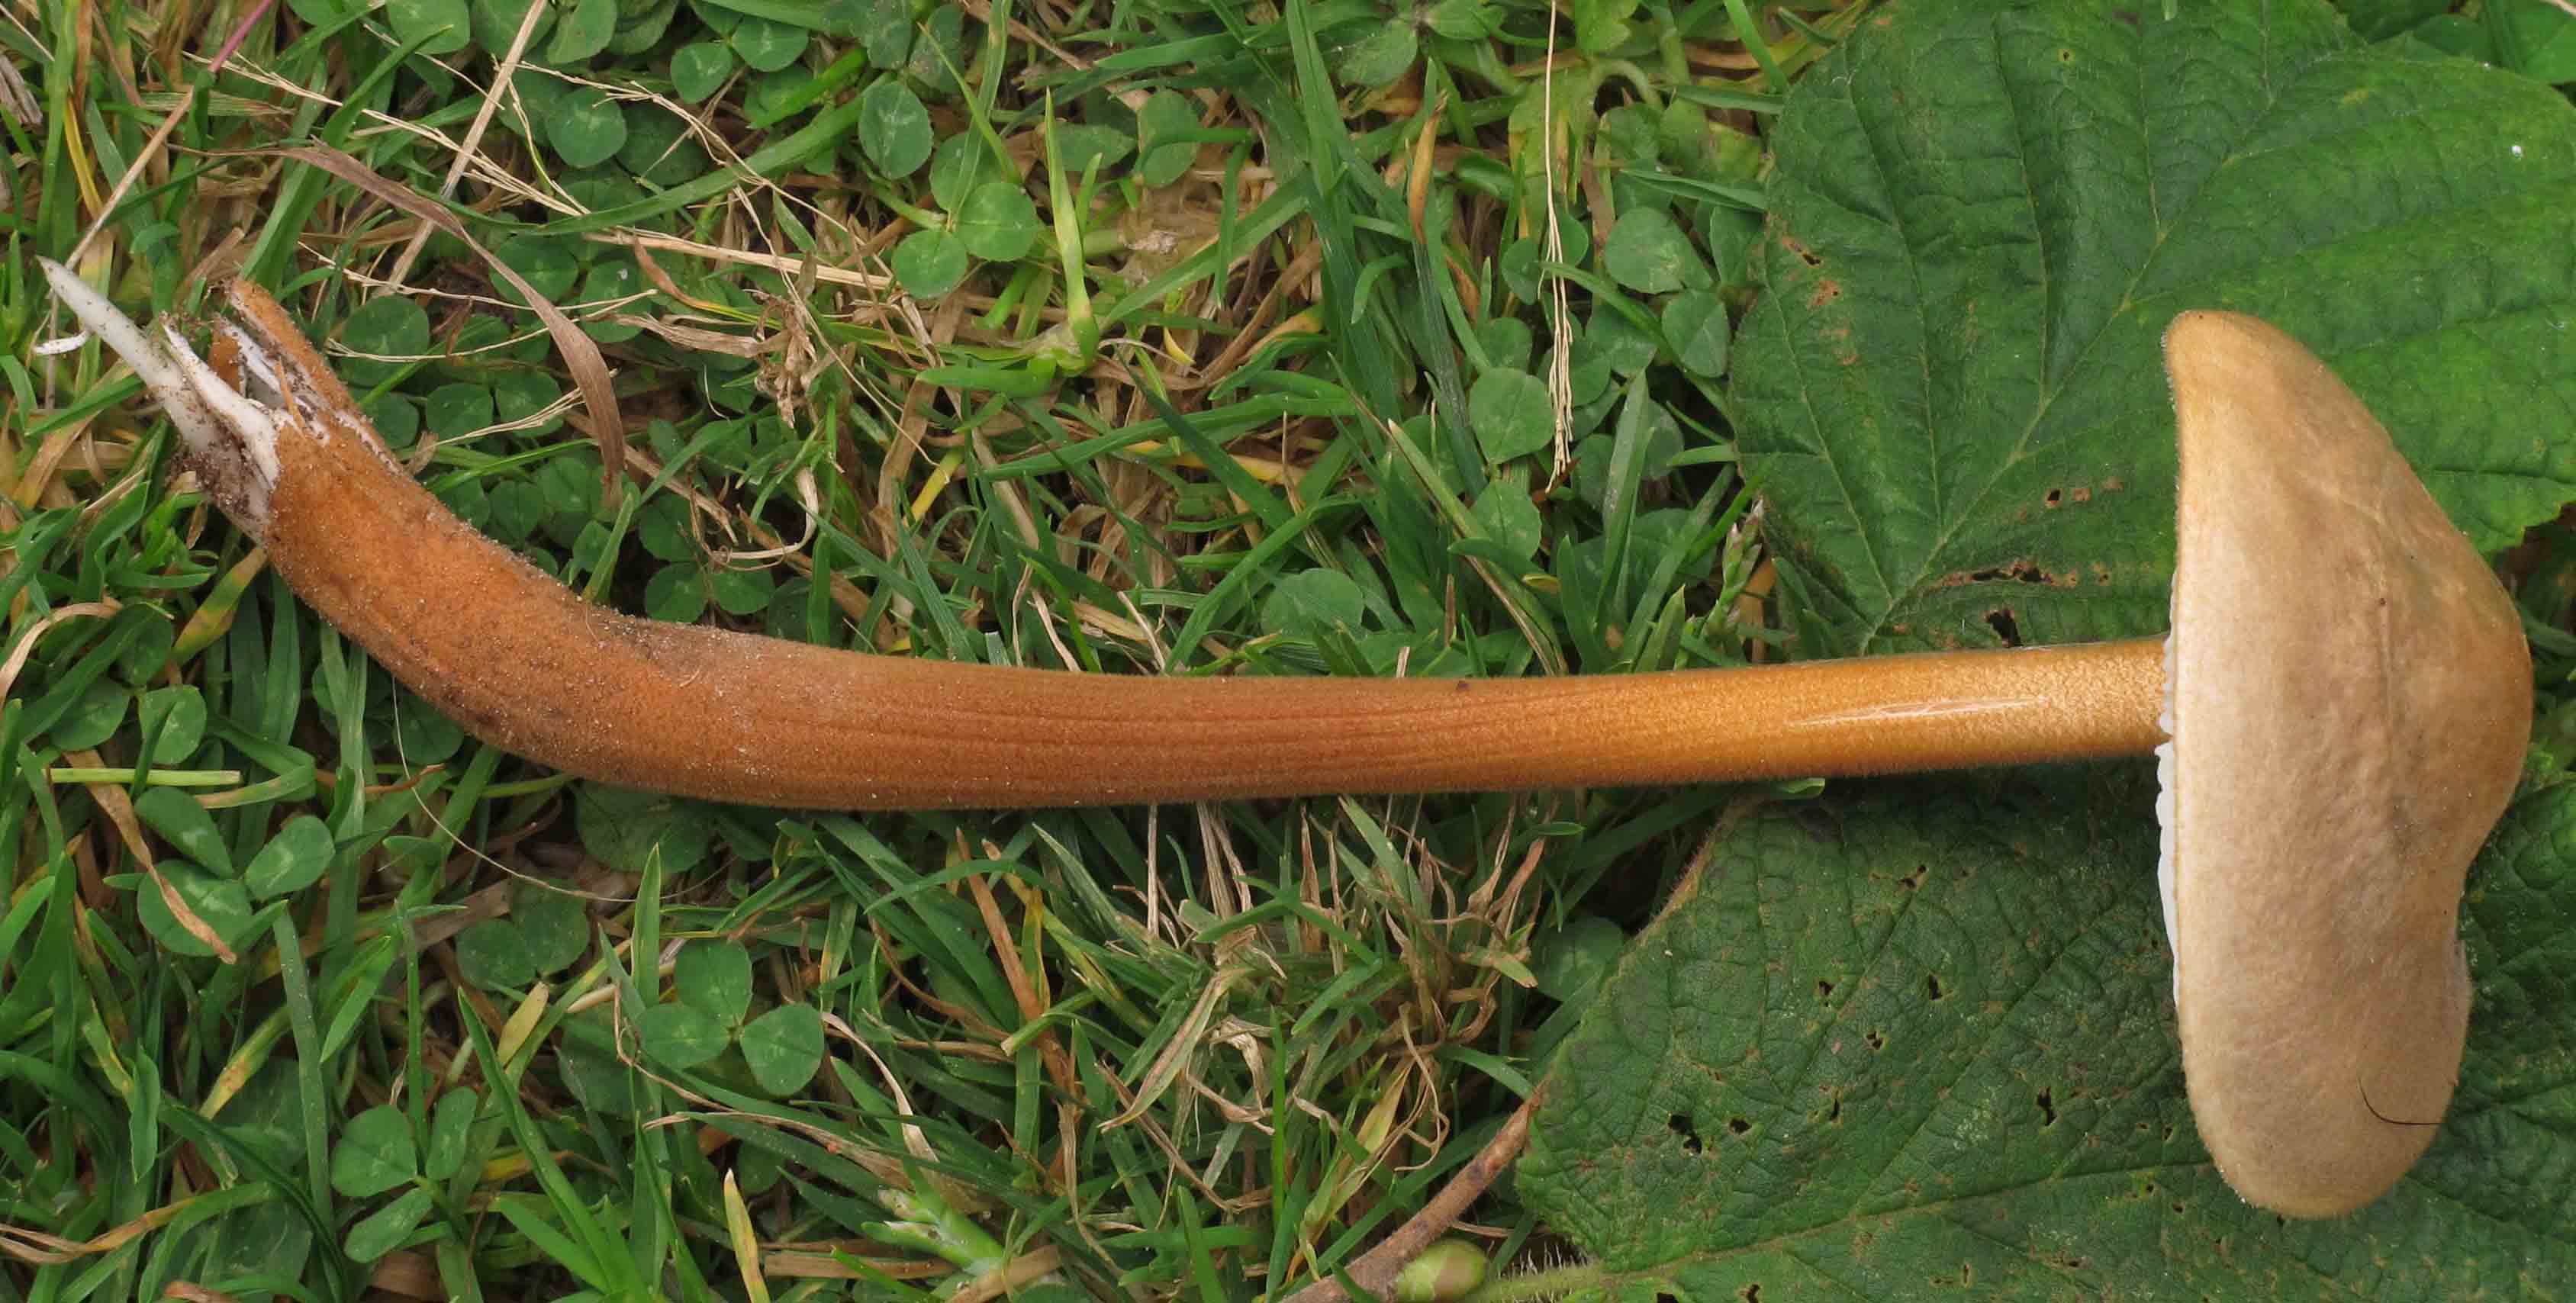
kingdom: Fungi
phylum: Basidiomycota
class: Agaricomycetes
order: Agaricales
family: Physalacriaceae
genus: Xerula
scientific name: Xerula pudens
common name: filtet pælerodshat
